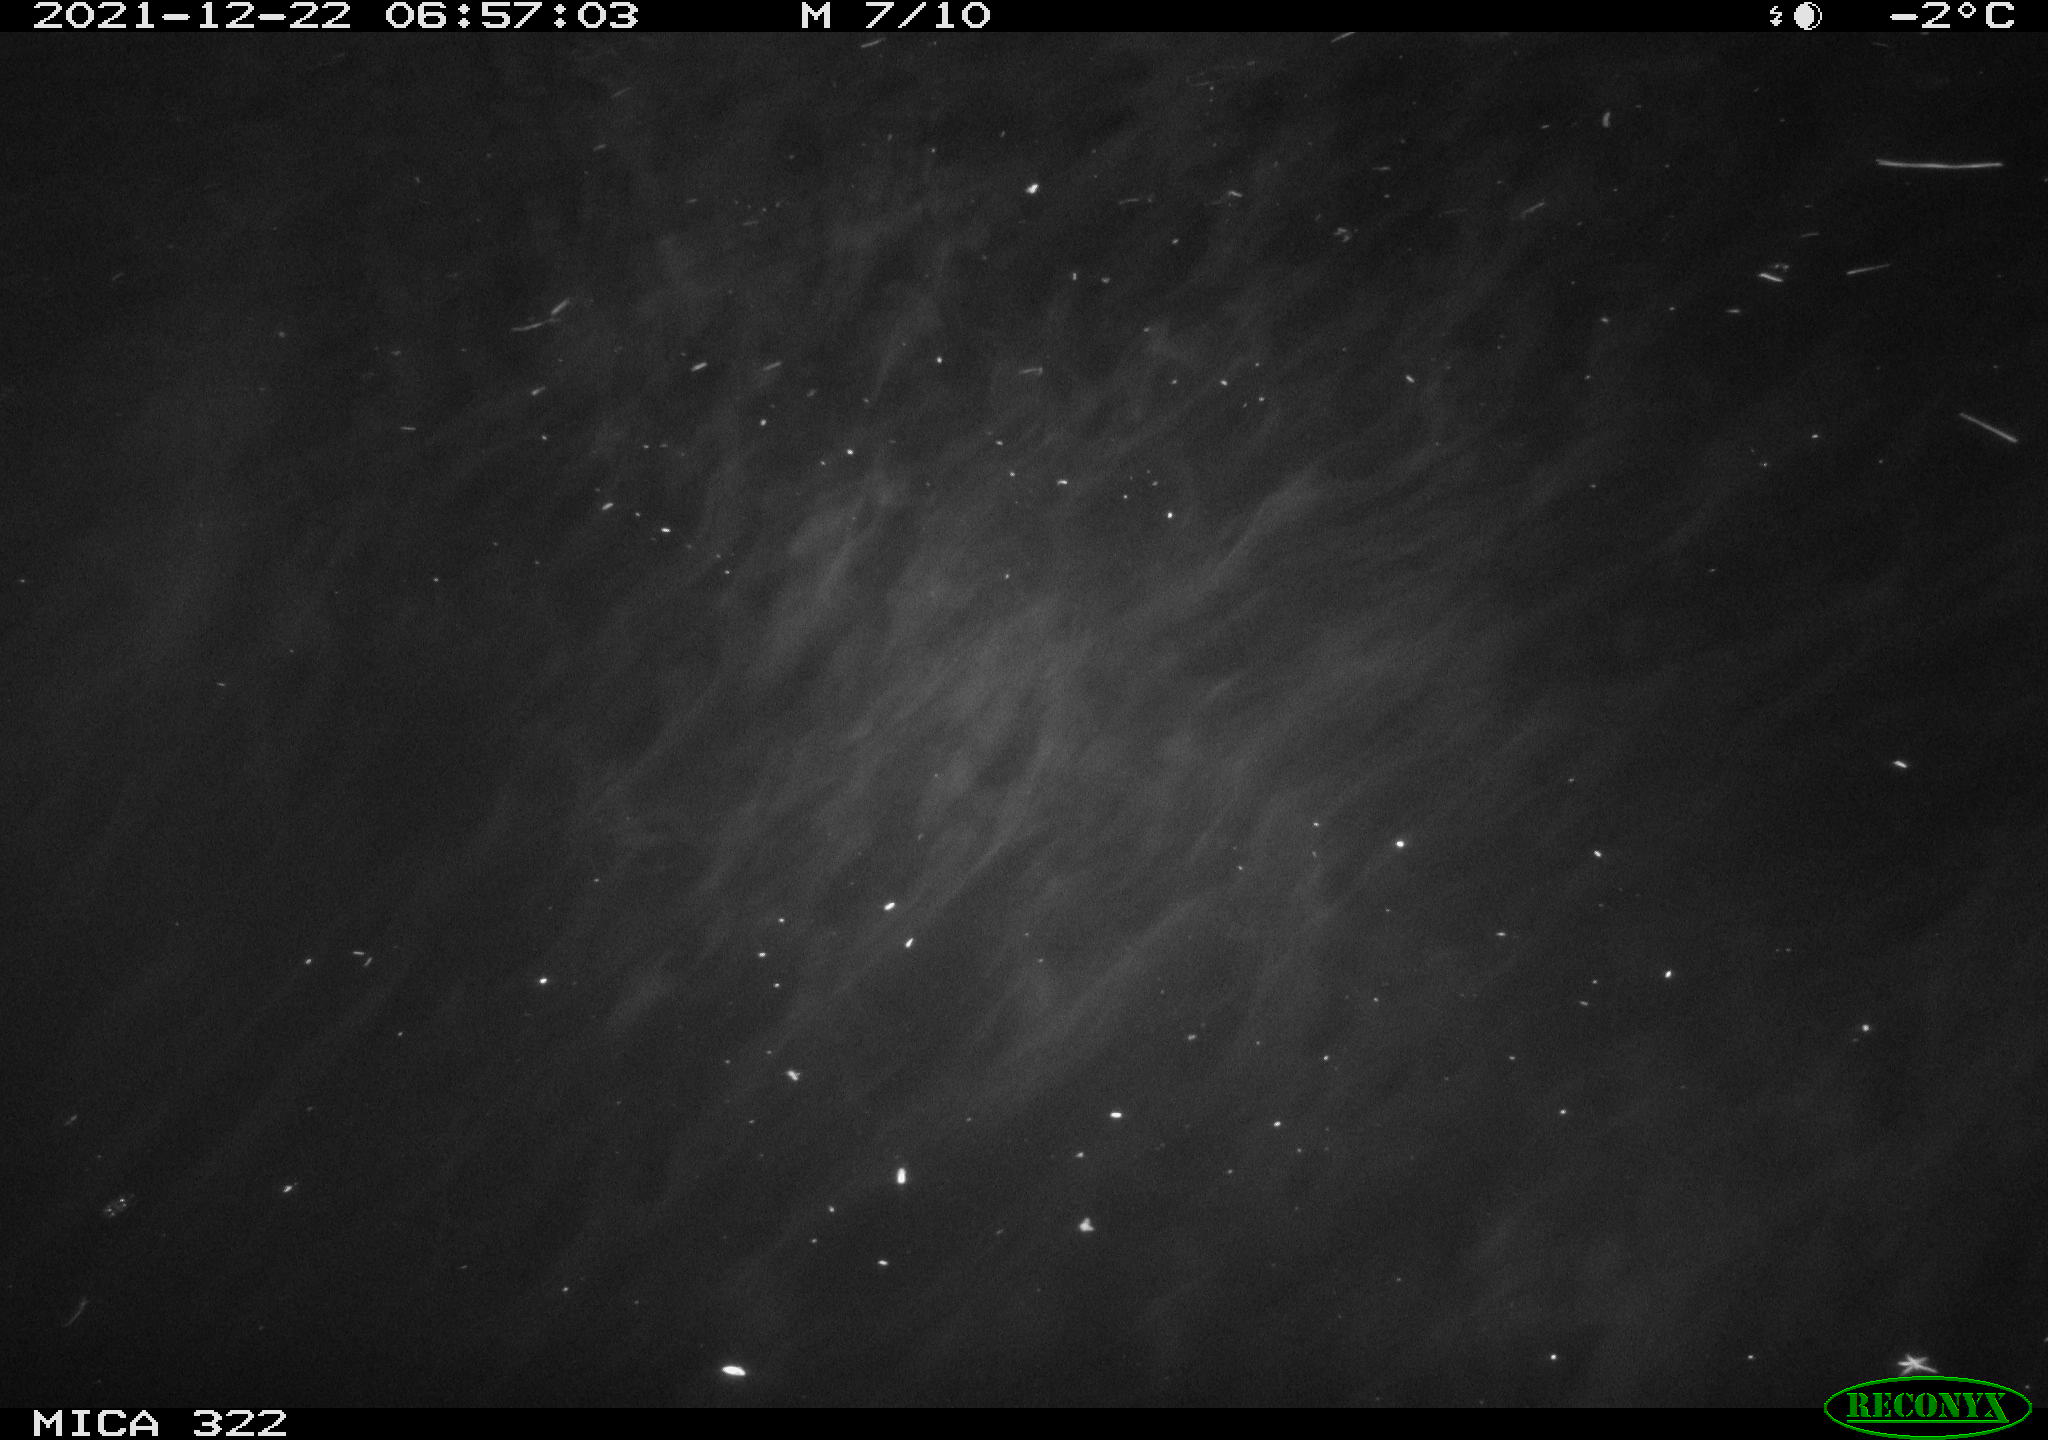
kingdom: Animalia
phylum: Chordata
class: Aves
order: Anseriformes
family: Anatidae
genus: Anas
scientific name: Anas
